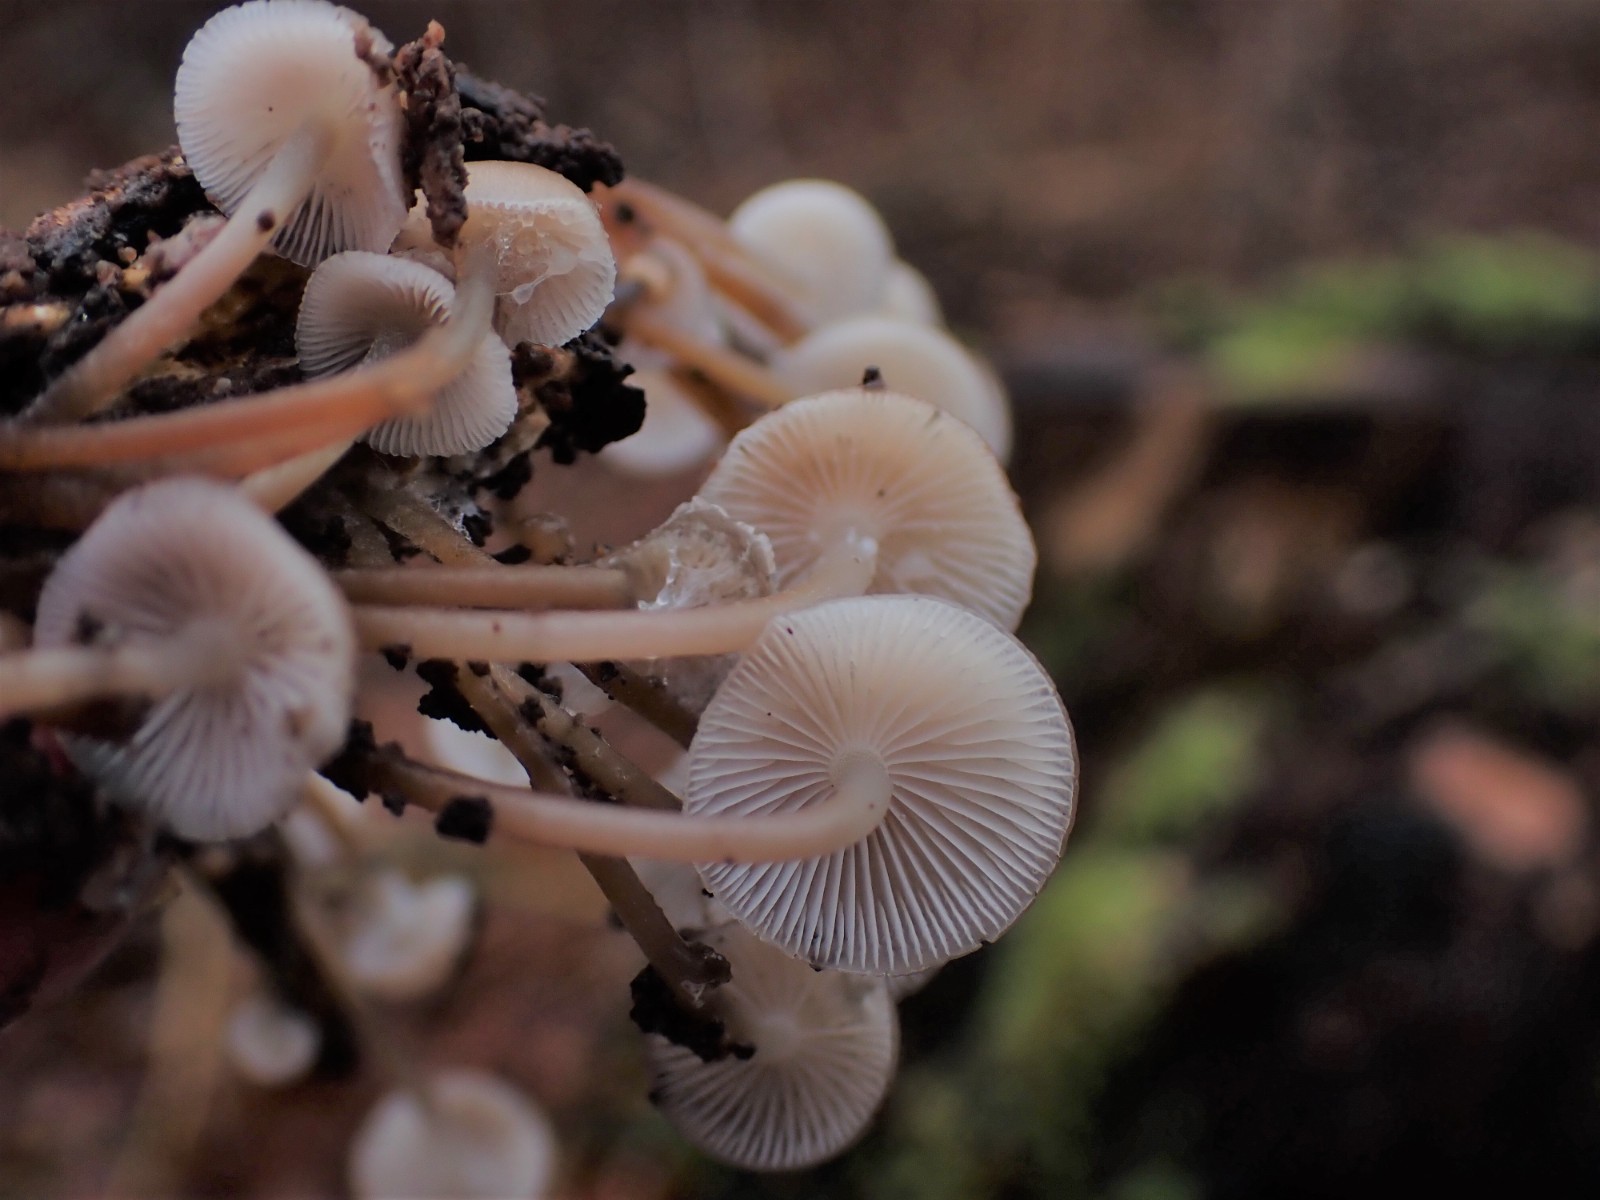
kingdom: Fungi
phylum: Basidiomycota
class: Agaricomycetes
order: Agaricales
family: Mycenaceae
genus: Mycena
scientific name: Mycena tintinnabulum
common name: vinter-huesvamp
